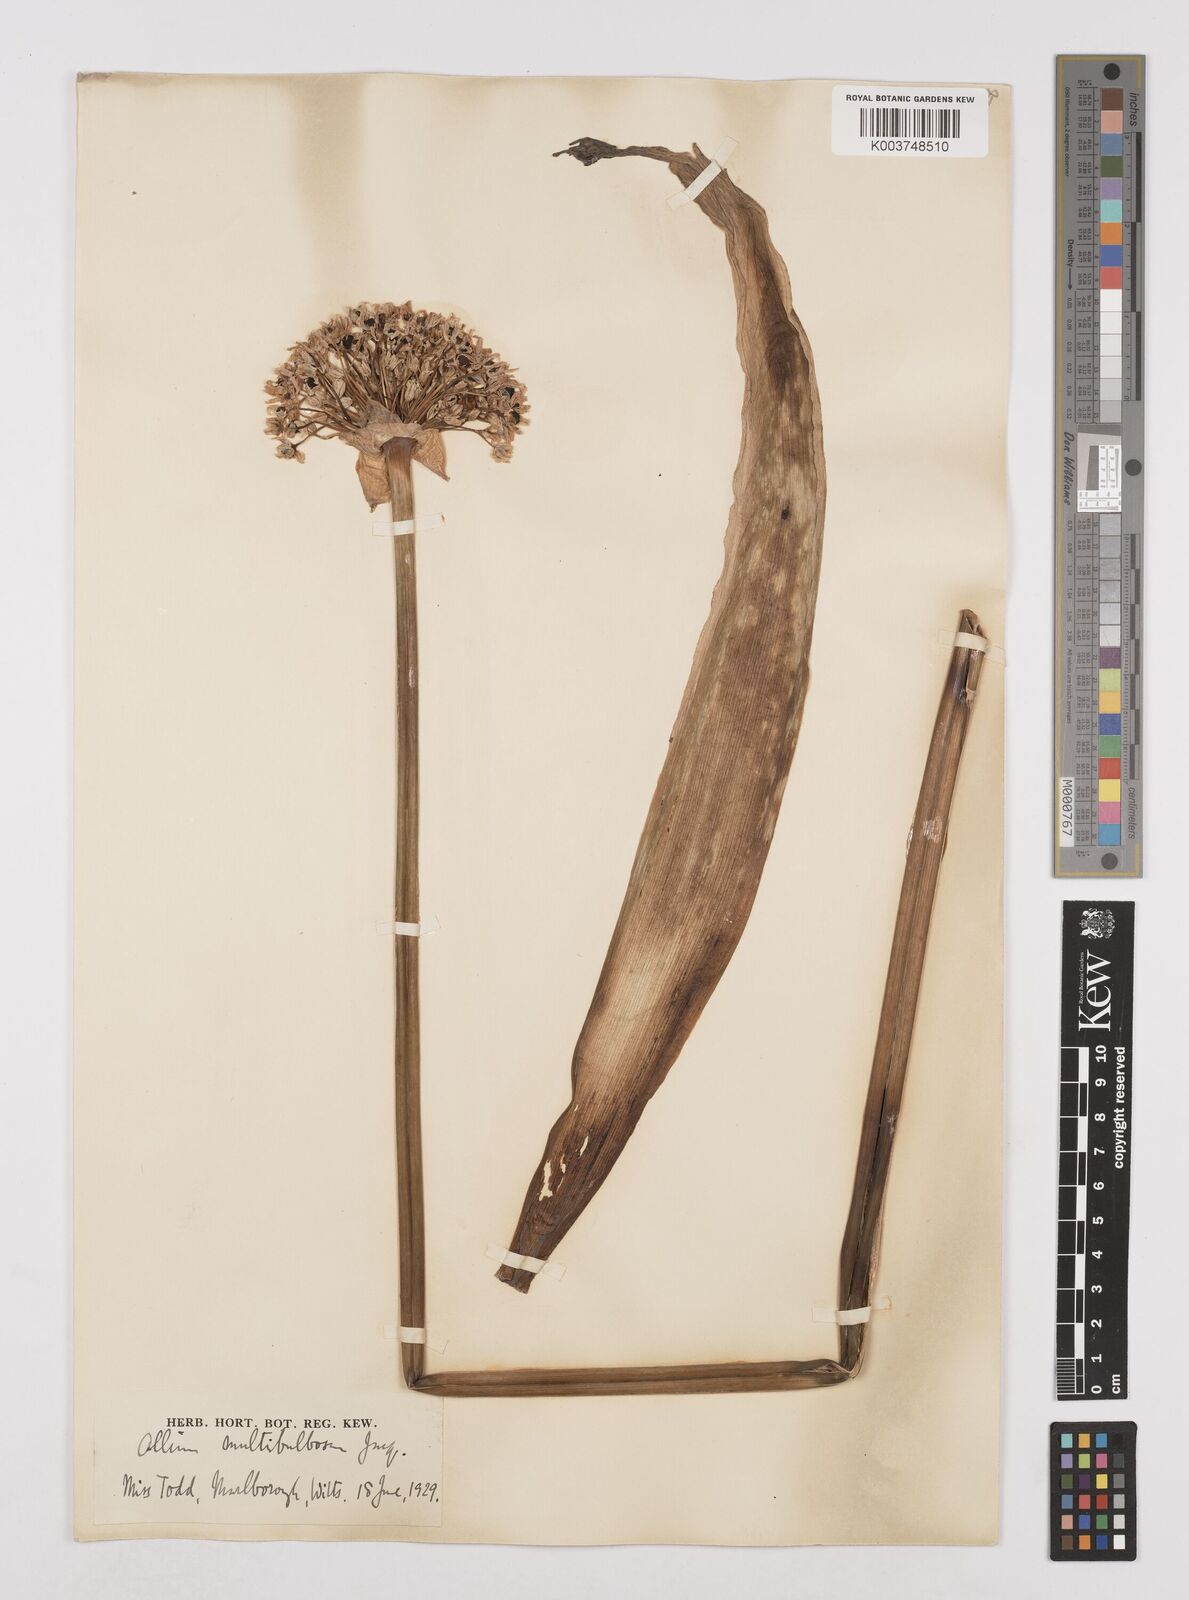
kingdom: Plantae
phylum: Tracheophyta
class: Liliopsida
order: Asparagales
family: Amaryllidaceae
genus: Allium
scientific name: Allium multibulbosum
